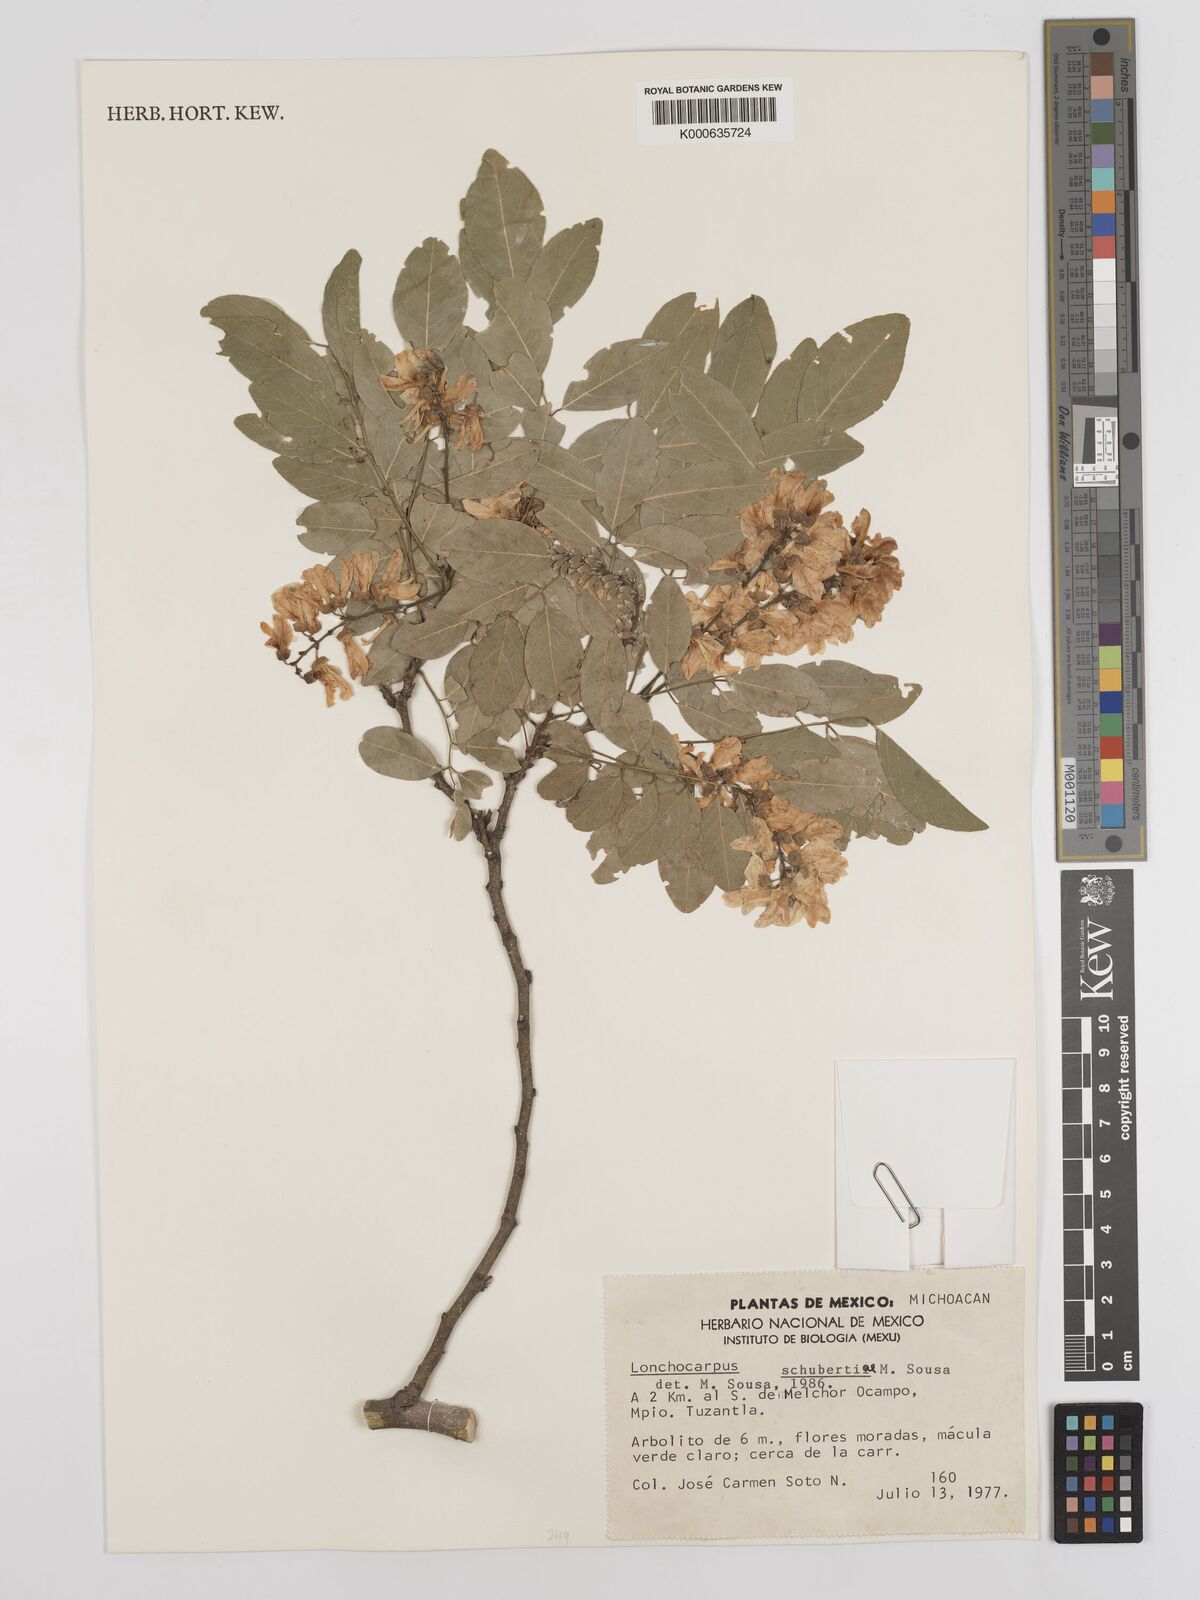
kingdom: Plantae
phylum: Tracheophyta
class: Magnoliopsida
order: Fabales
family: Fabaceae
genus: Lonchocarpus
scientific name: Lonchocarpus schubertiae
